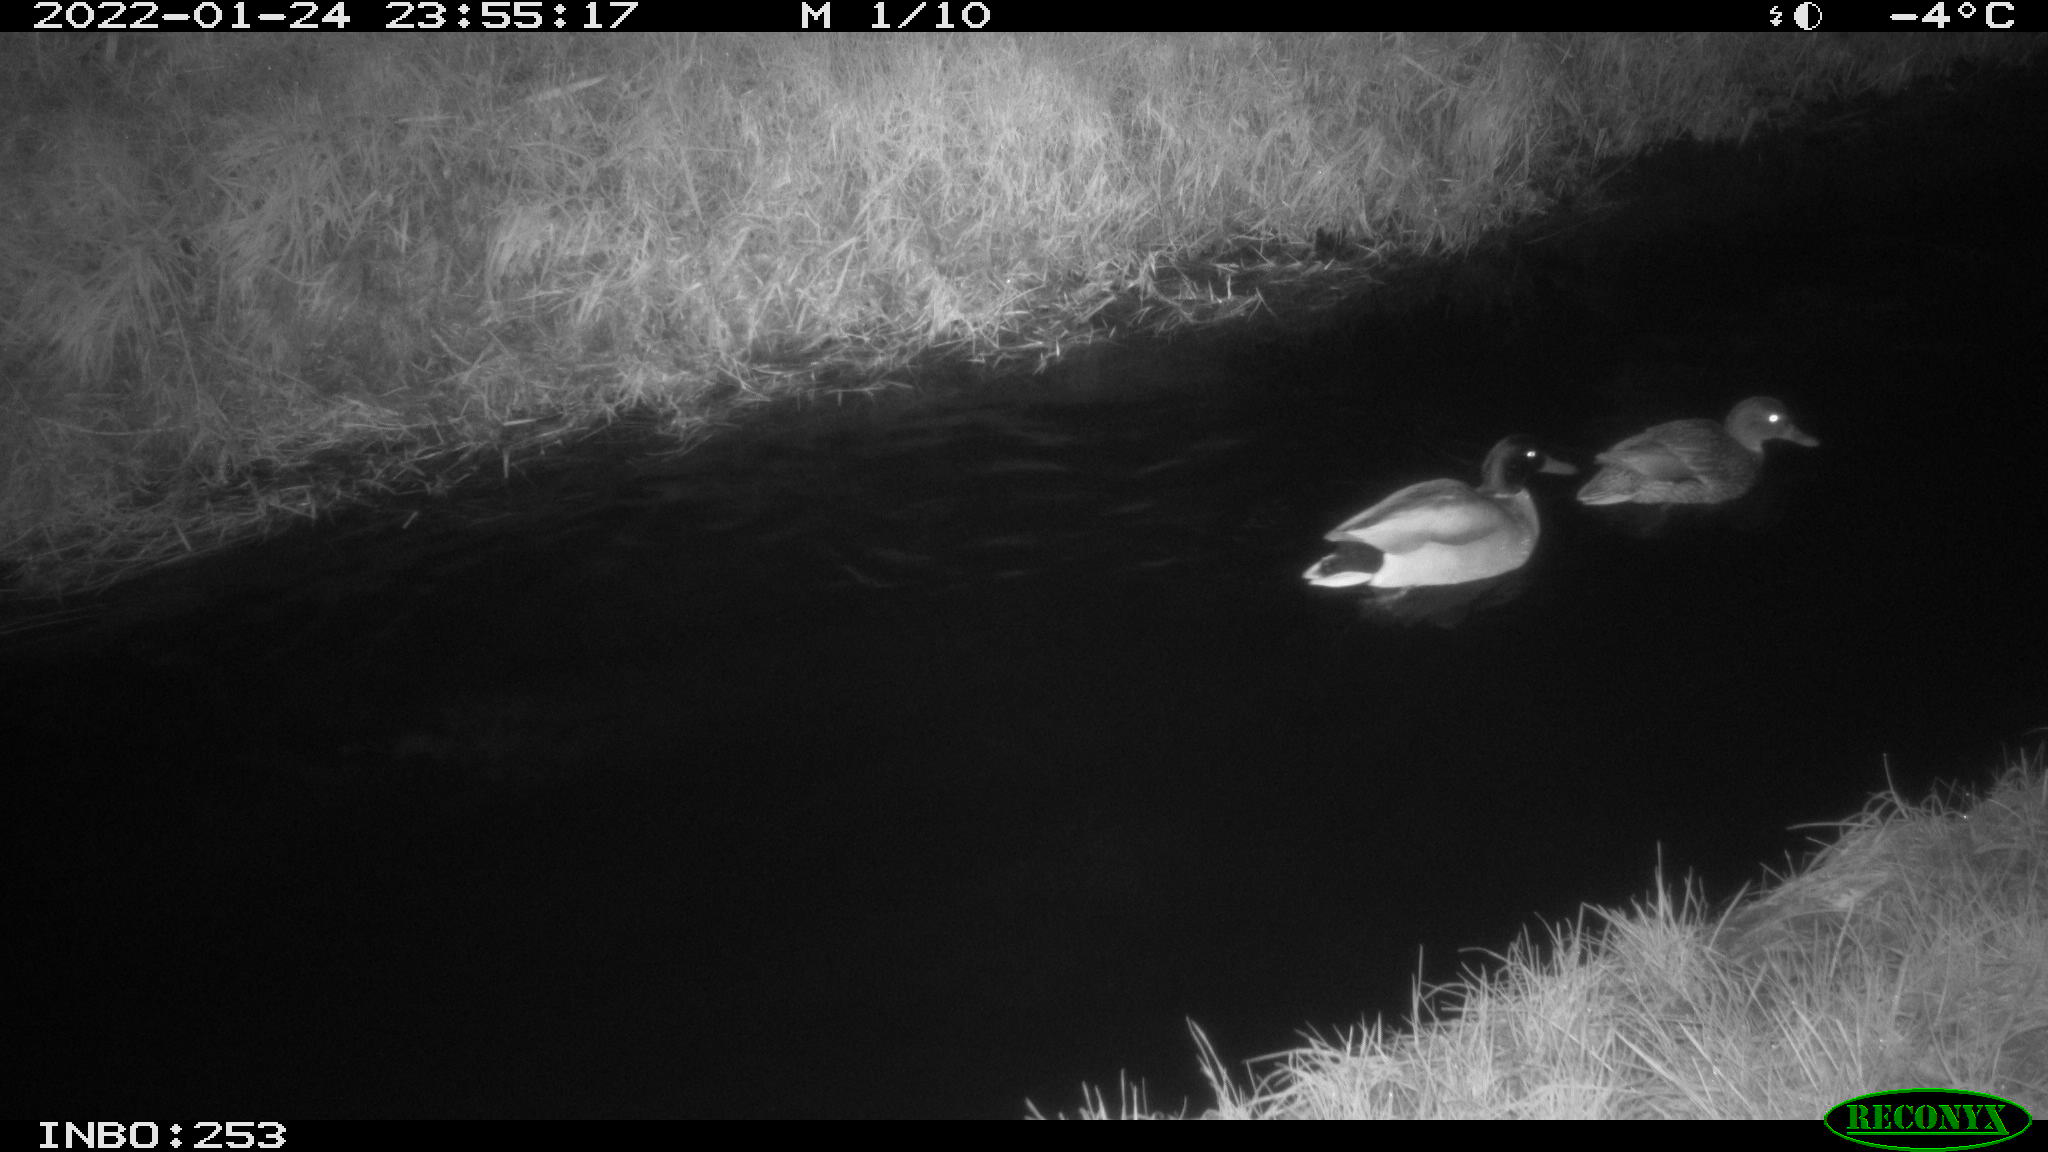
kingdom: Animalia
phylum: Chordata
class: Aves
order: Anseriformes
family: Anatidae
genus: Anas
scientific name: Anas
